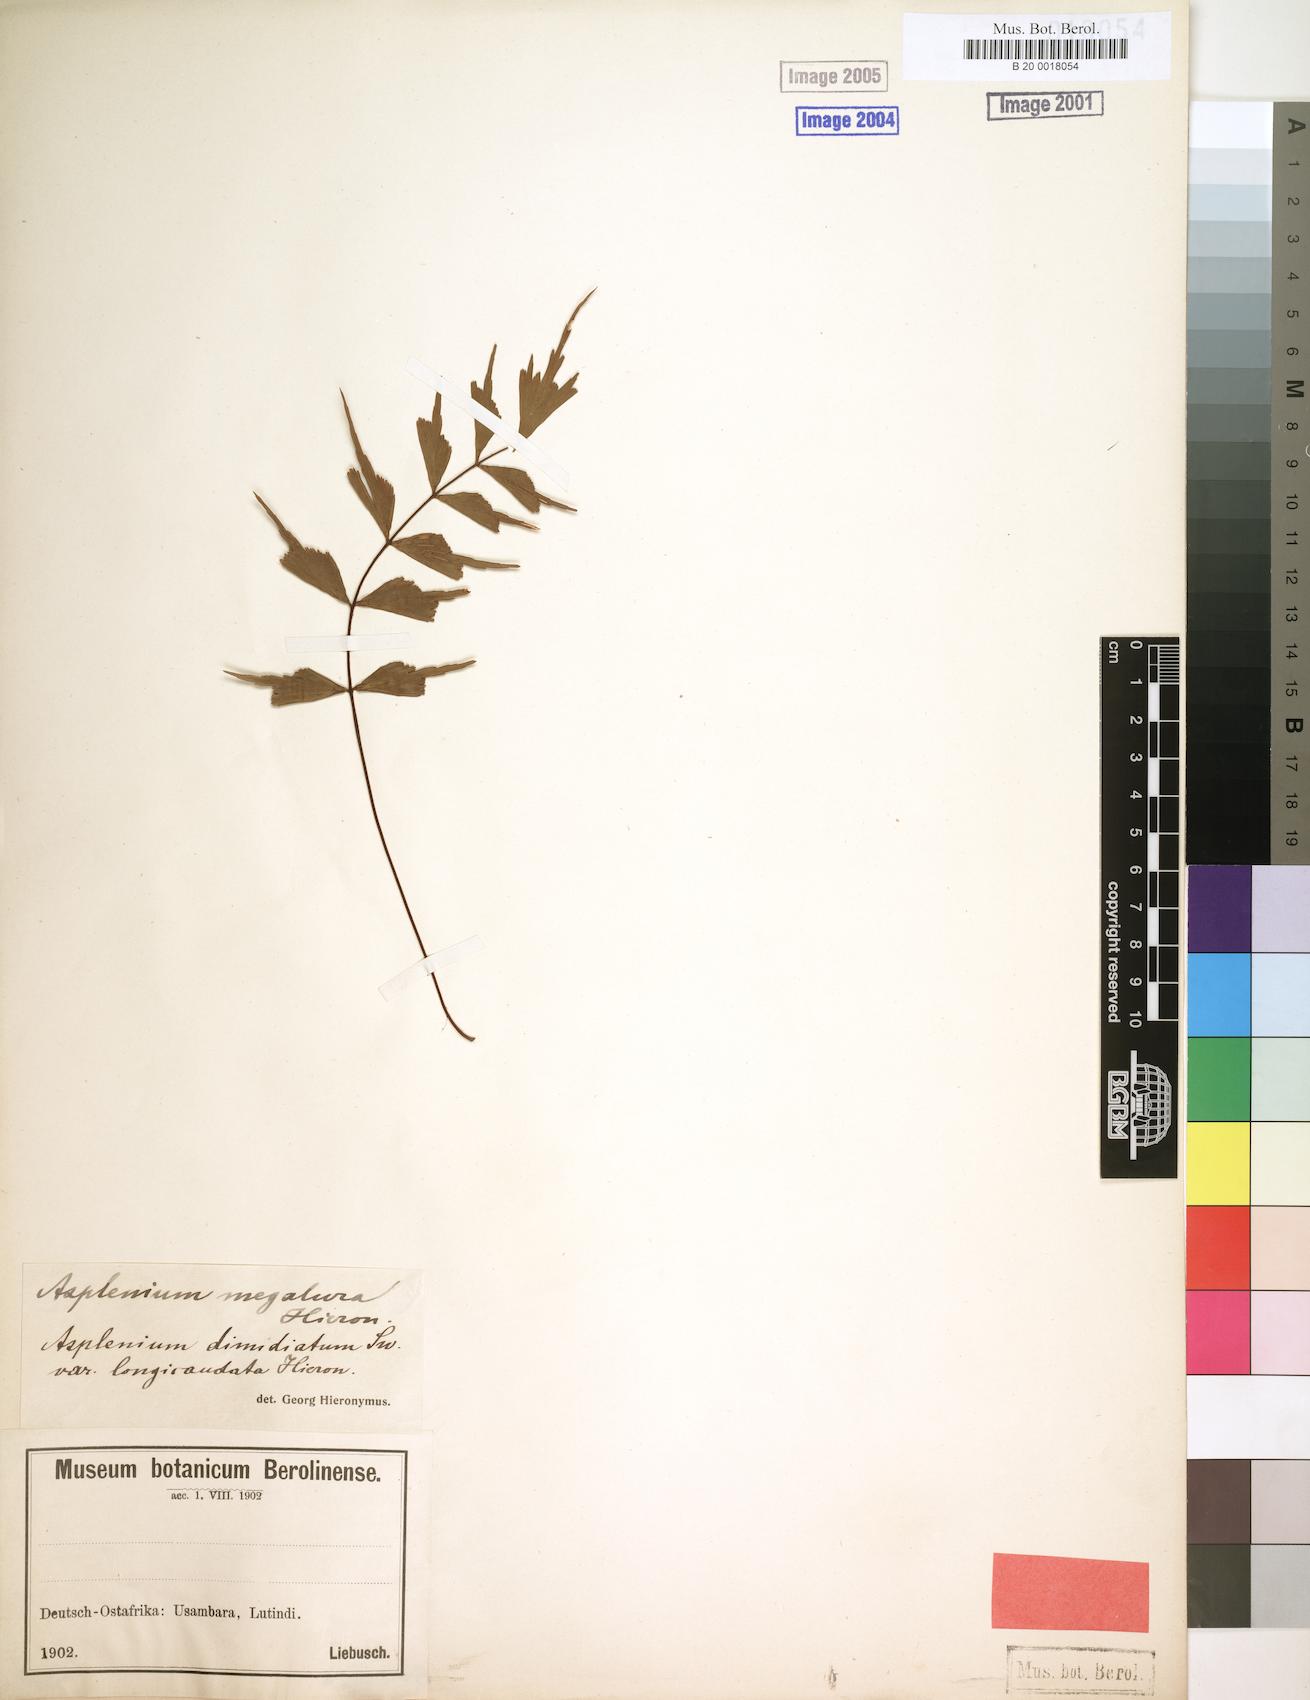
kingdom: Plantae
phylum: Tracheophyta
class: Polypodiopsida
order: Polypodiales
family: Aspleniaceae
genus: Asplenium
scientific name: Asplenium megalura
